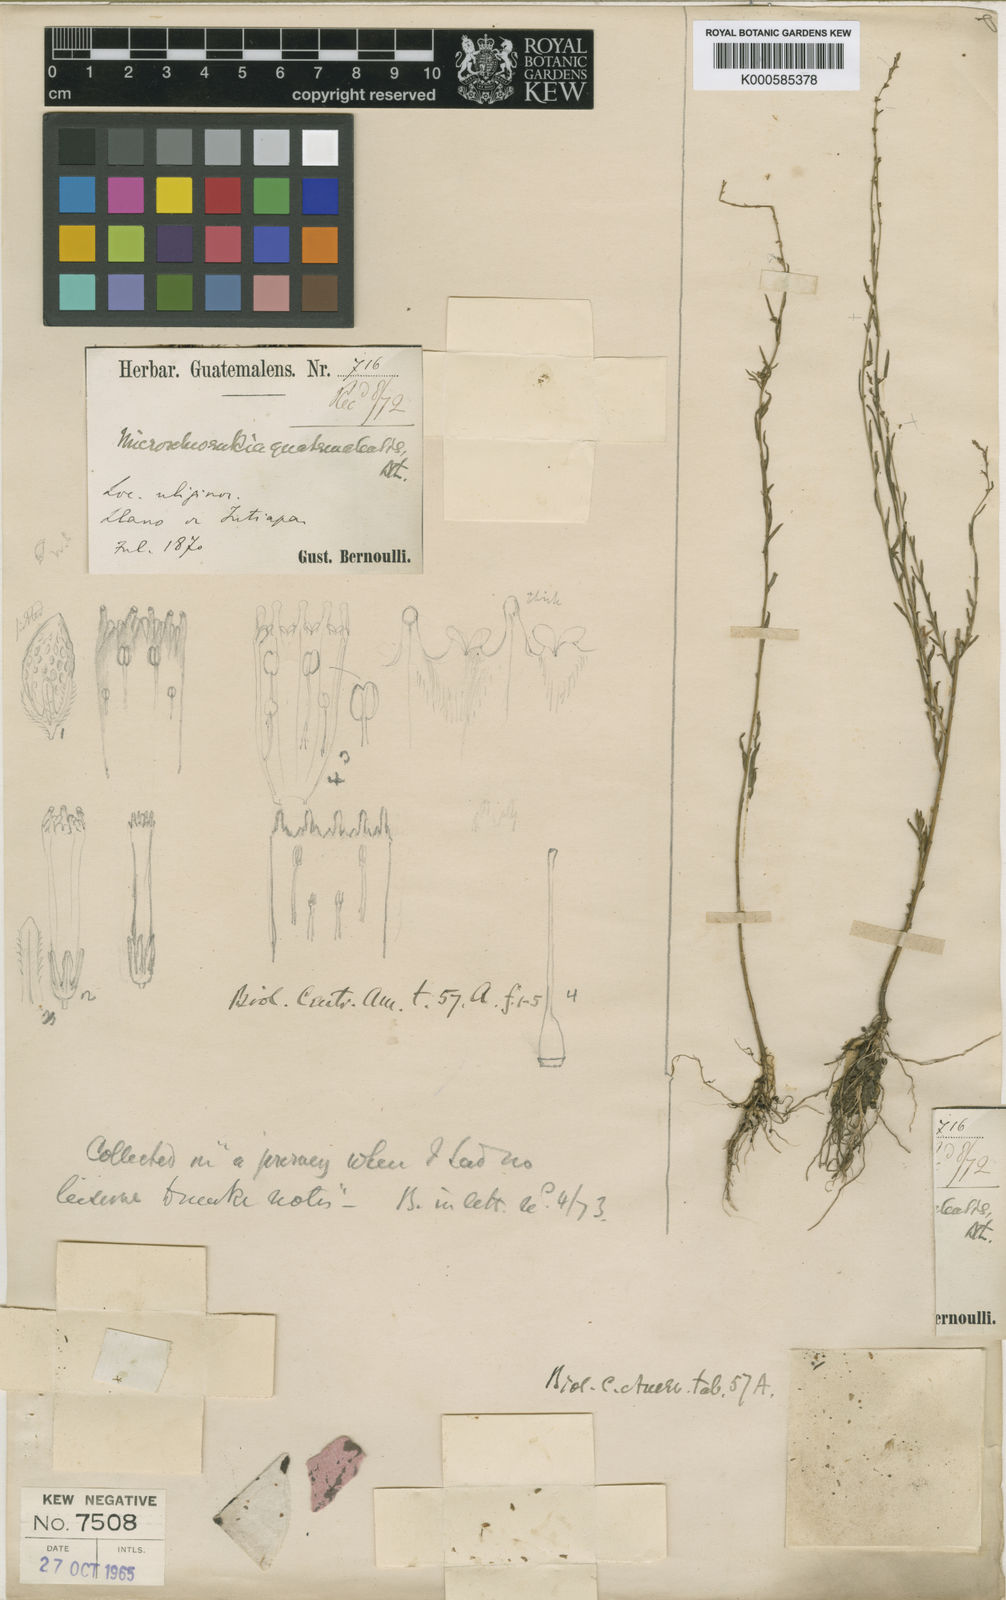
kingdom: Plantae
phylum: Tracheophyta
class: Magnoliopsida
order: Solanales
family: Solanaceae
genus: Melananthus
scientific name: Melananthus guatemalensis
